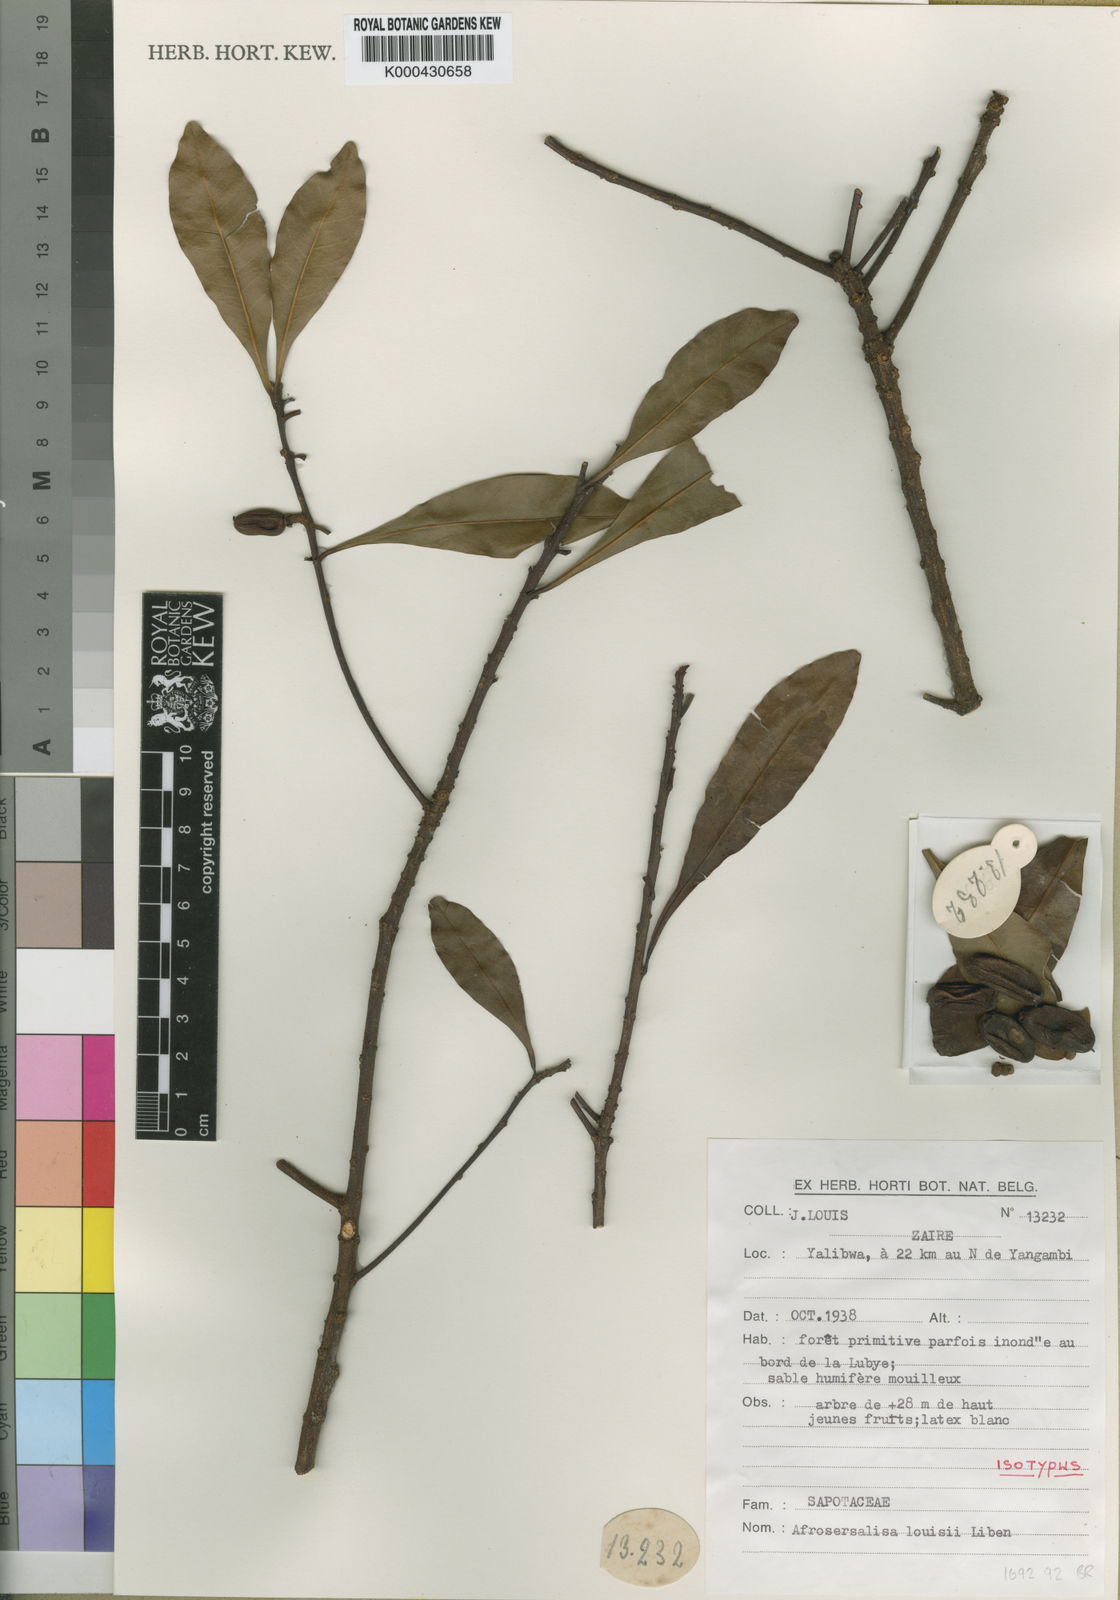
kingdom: Plantae
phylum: Tracheophyta
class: Magnoliopsida
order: Ericales
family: Sapotaceae
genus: Synsepalum
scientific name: Synsepalum
